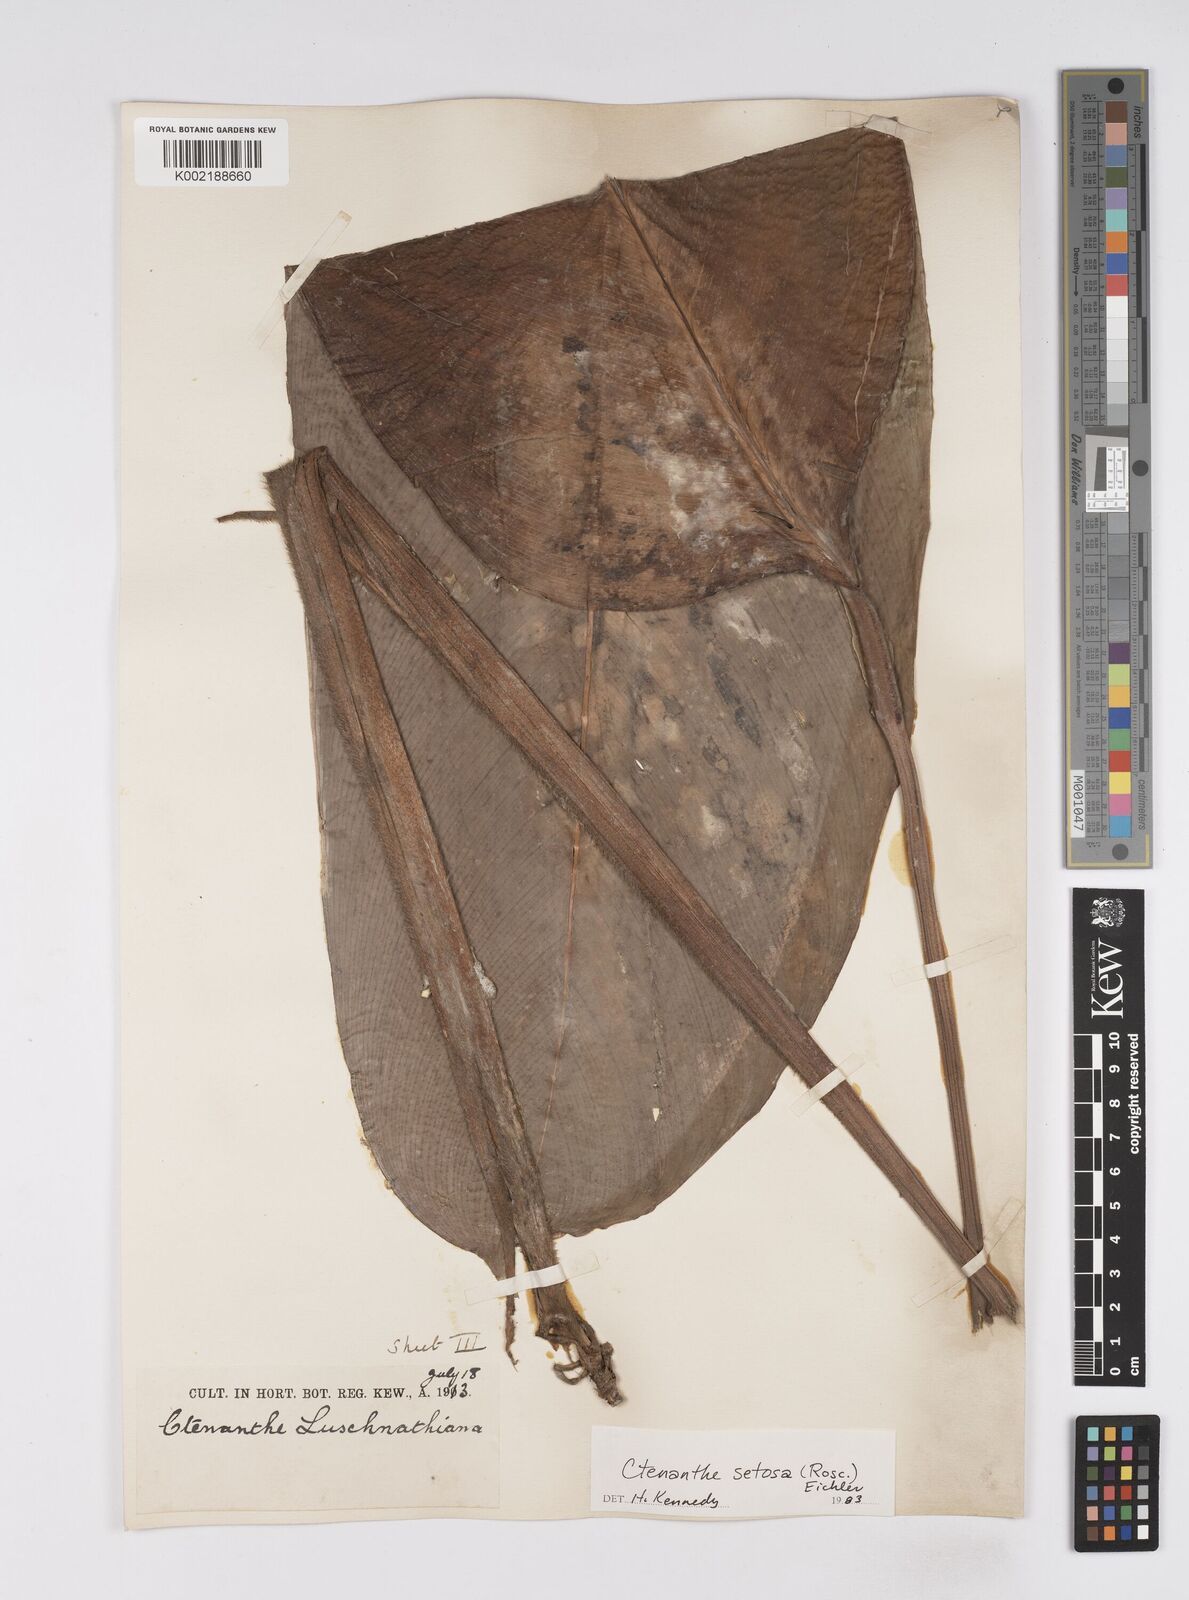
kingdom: Plantae
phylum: Tracheophyta
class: Liliopsida
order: Zingiberales
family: Marantaceae
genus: Ctenanthe
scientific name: Ctenanthe
